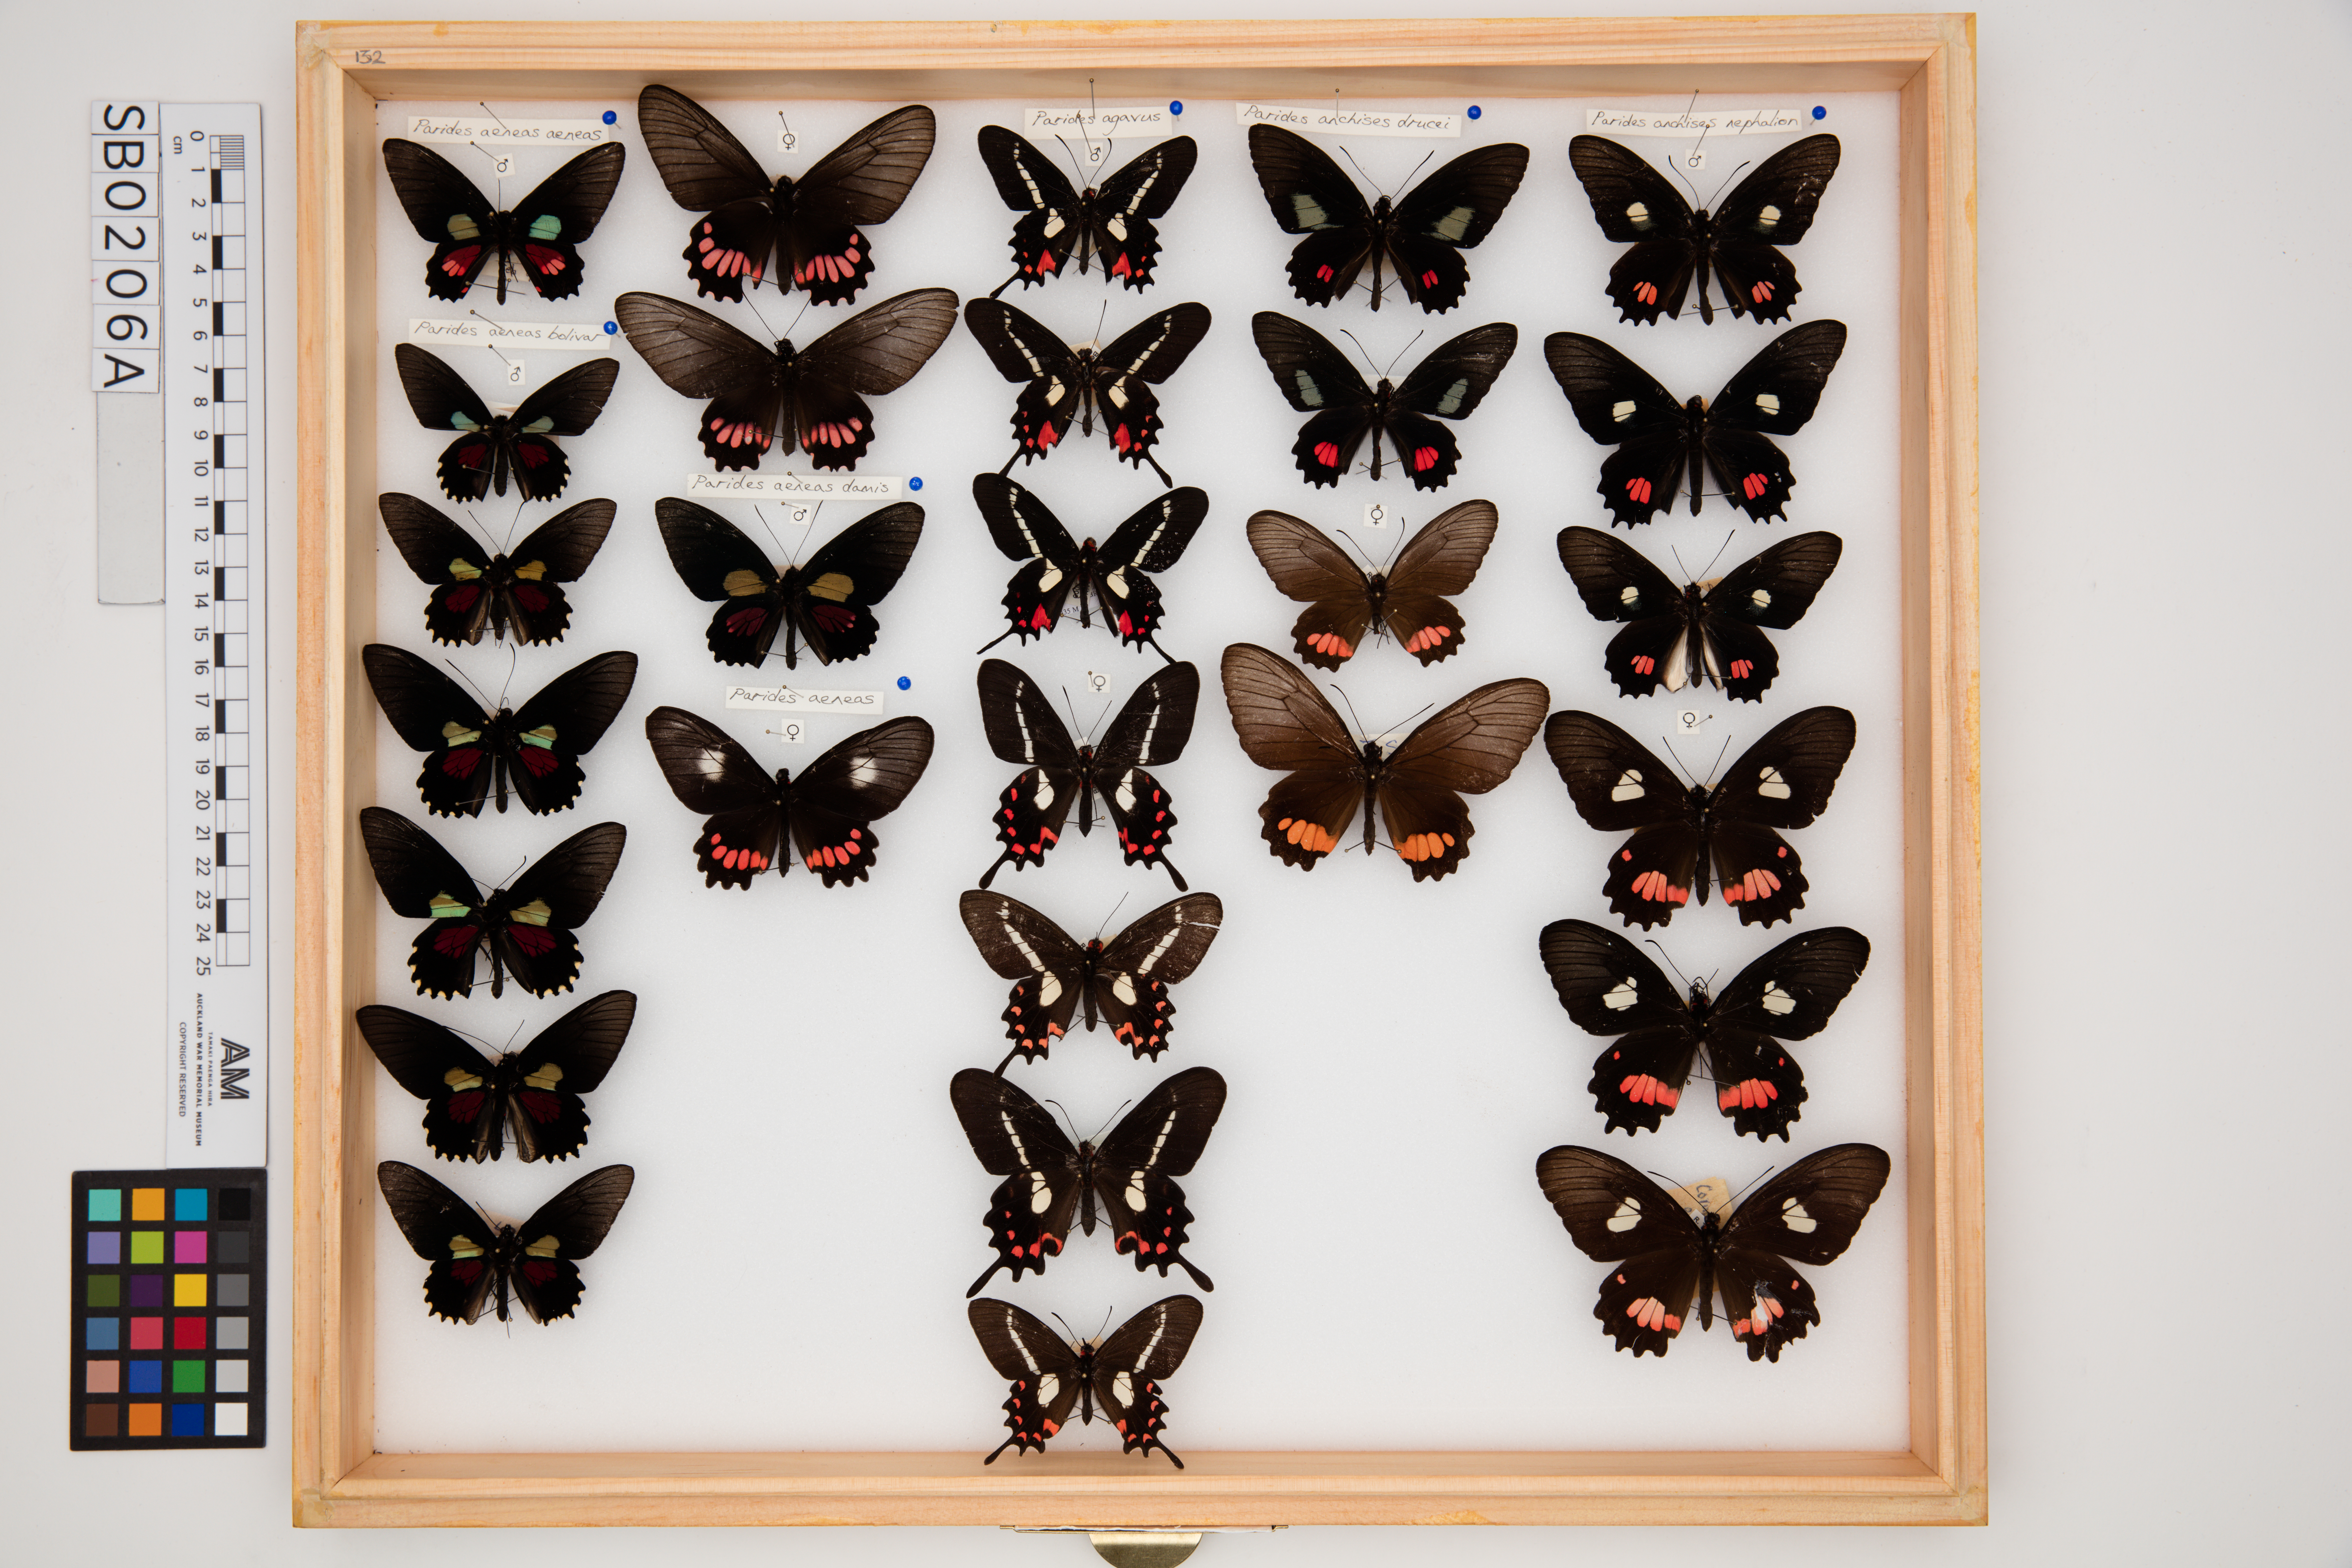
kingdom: Animalia
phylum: Arthropoda
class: Insecta
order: Lepidoptera
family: Papilionidae
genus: Parides
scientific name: Parides anchises
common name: Cattle heart
